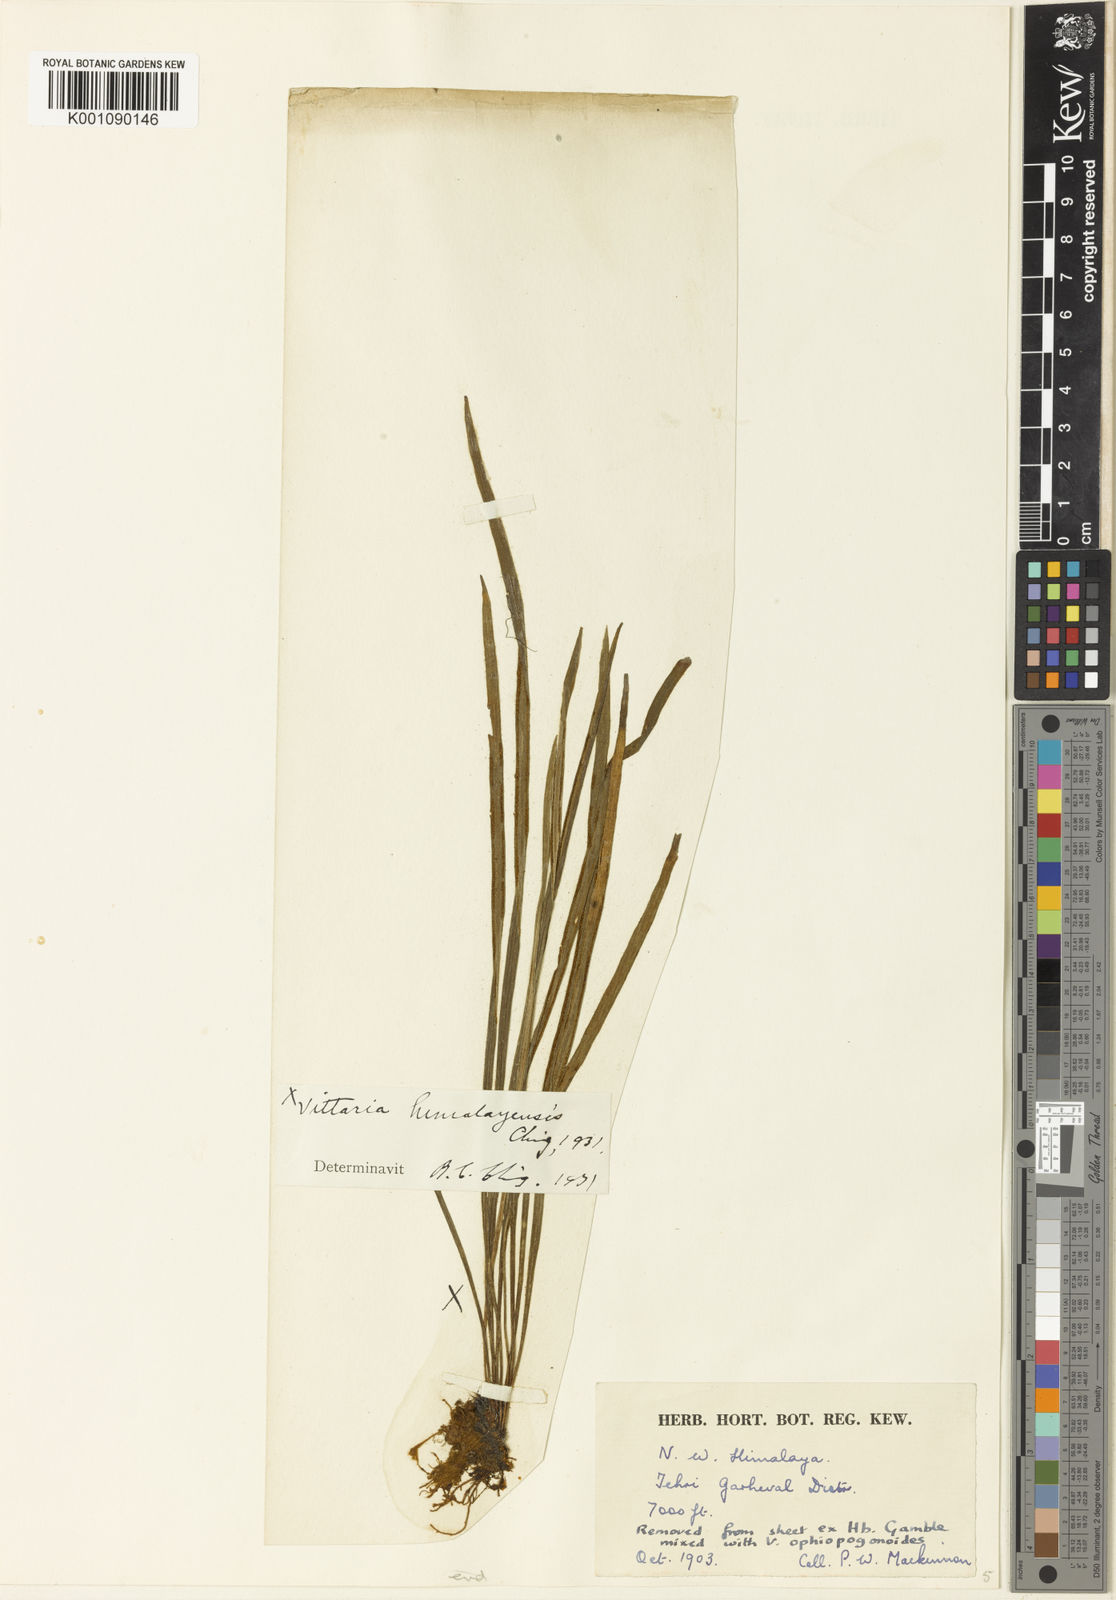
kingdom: Plantae
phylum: Tracheophyta
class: Polypodiopsida
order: Polypodiales
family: Pteridaceae
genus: Haplopteris
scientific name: Haplopteris taeniophylla
